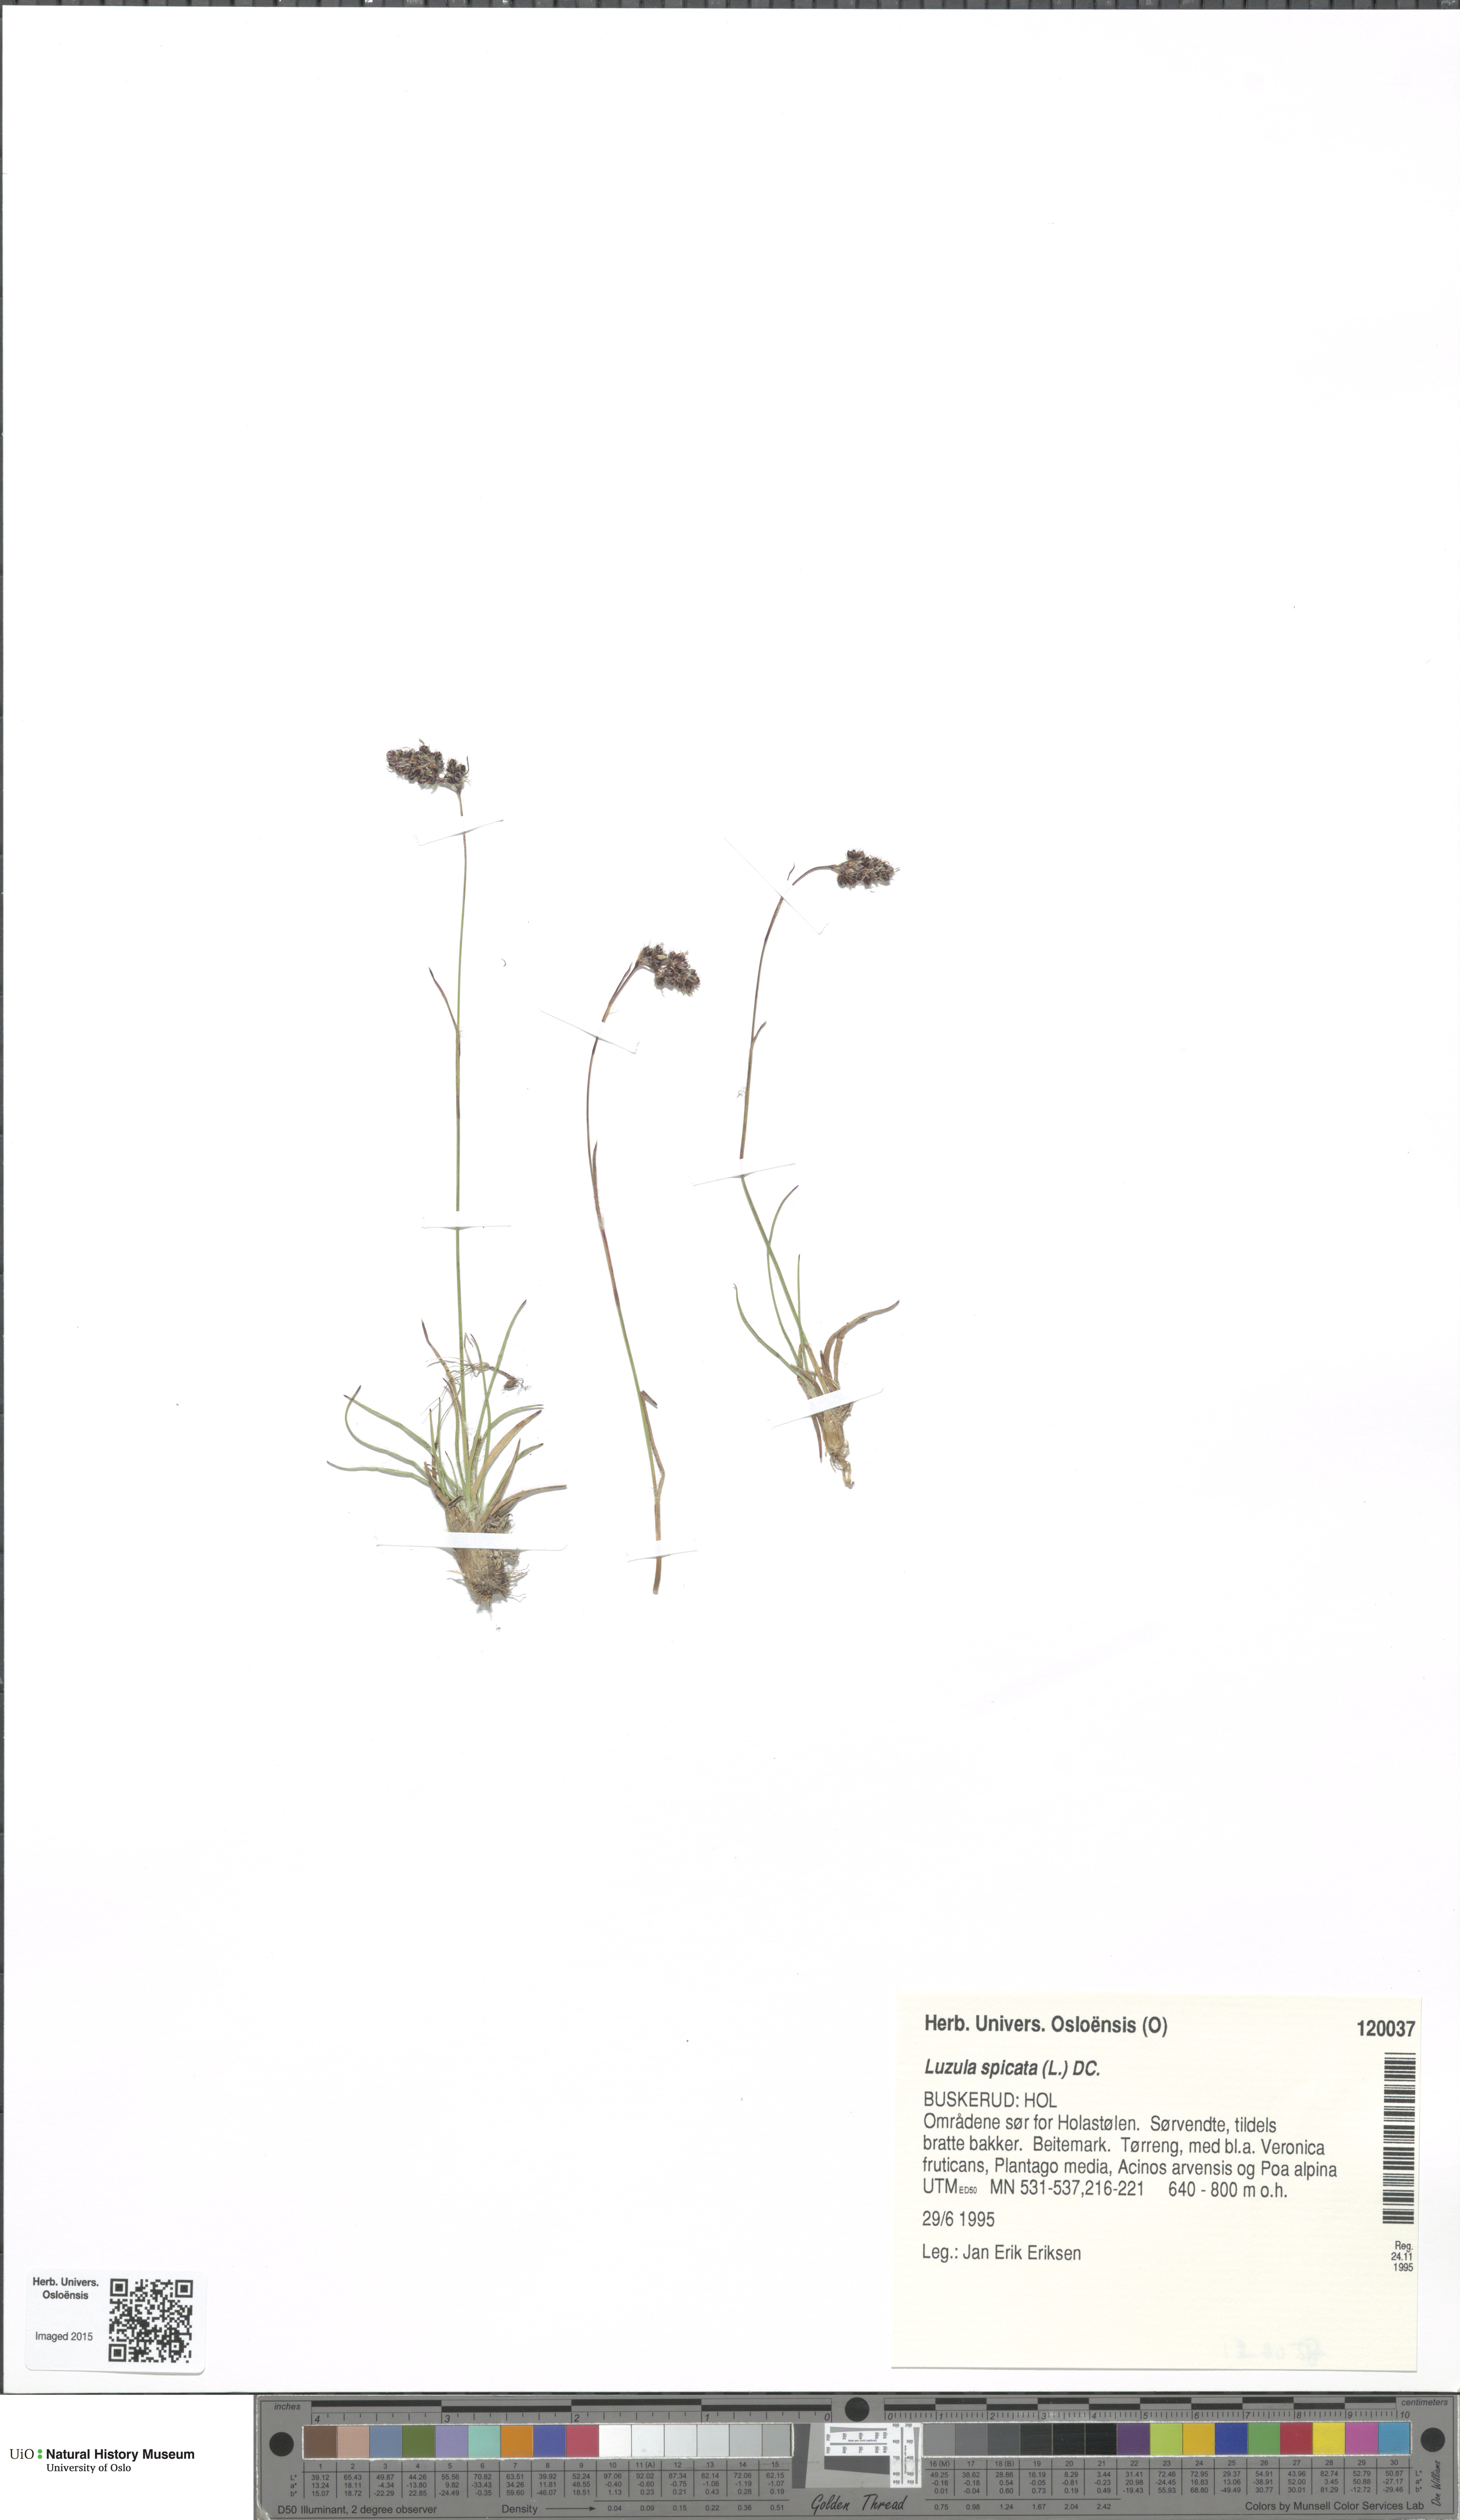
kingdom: Plantae
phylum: Tracheophyta
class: Liliopsida
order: Poales
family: Juncaceae
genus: Luzula
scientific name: Luzula spicata
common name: Spiked wood-rush
